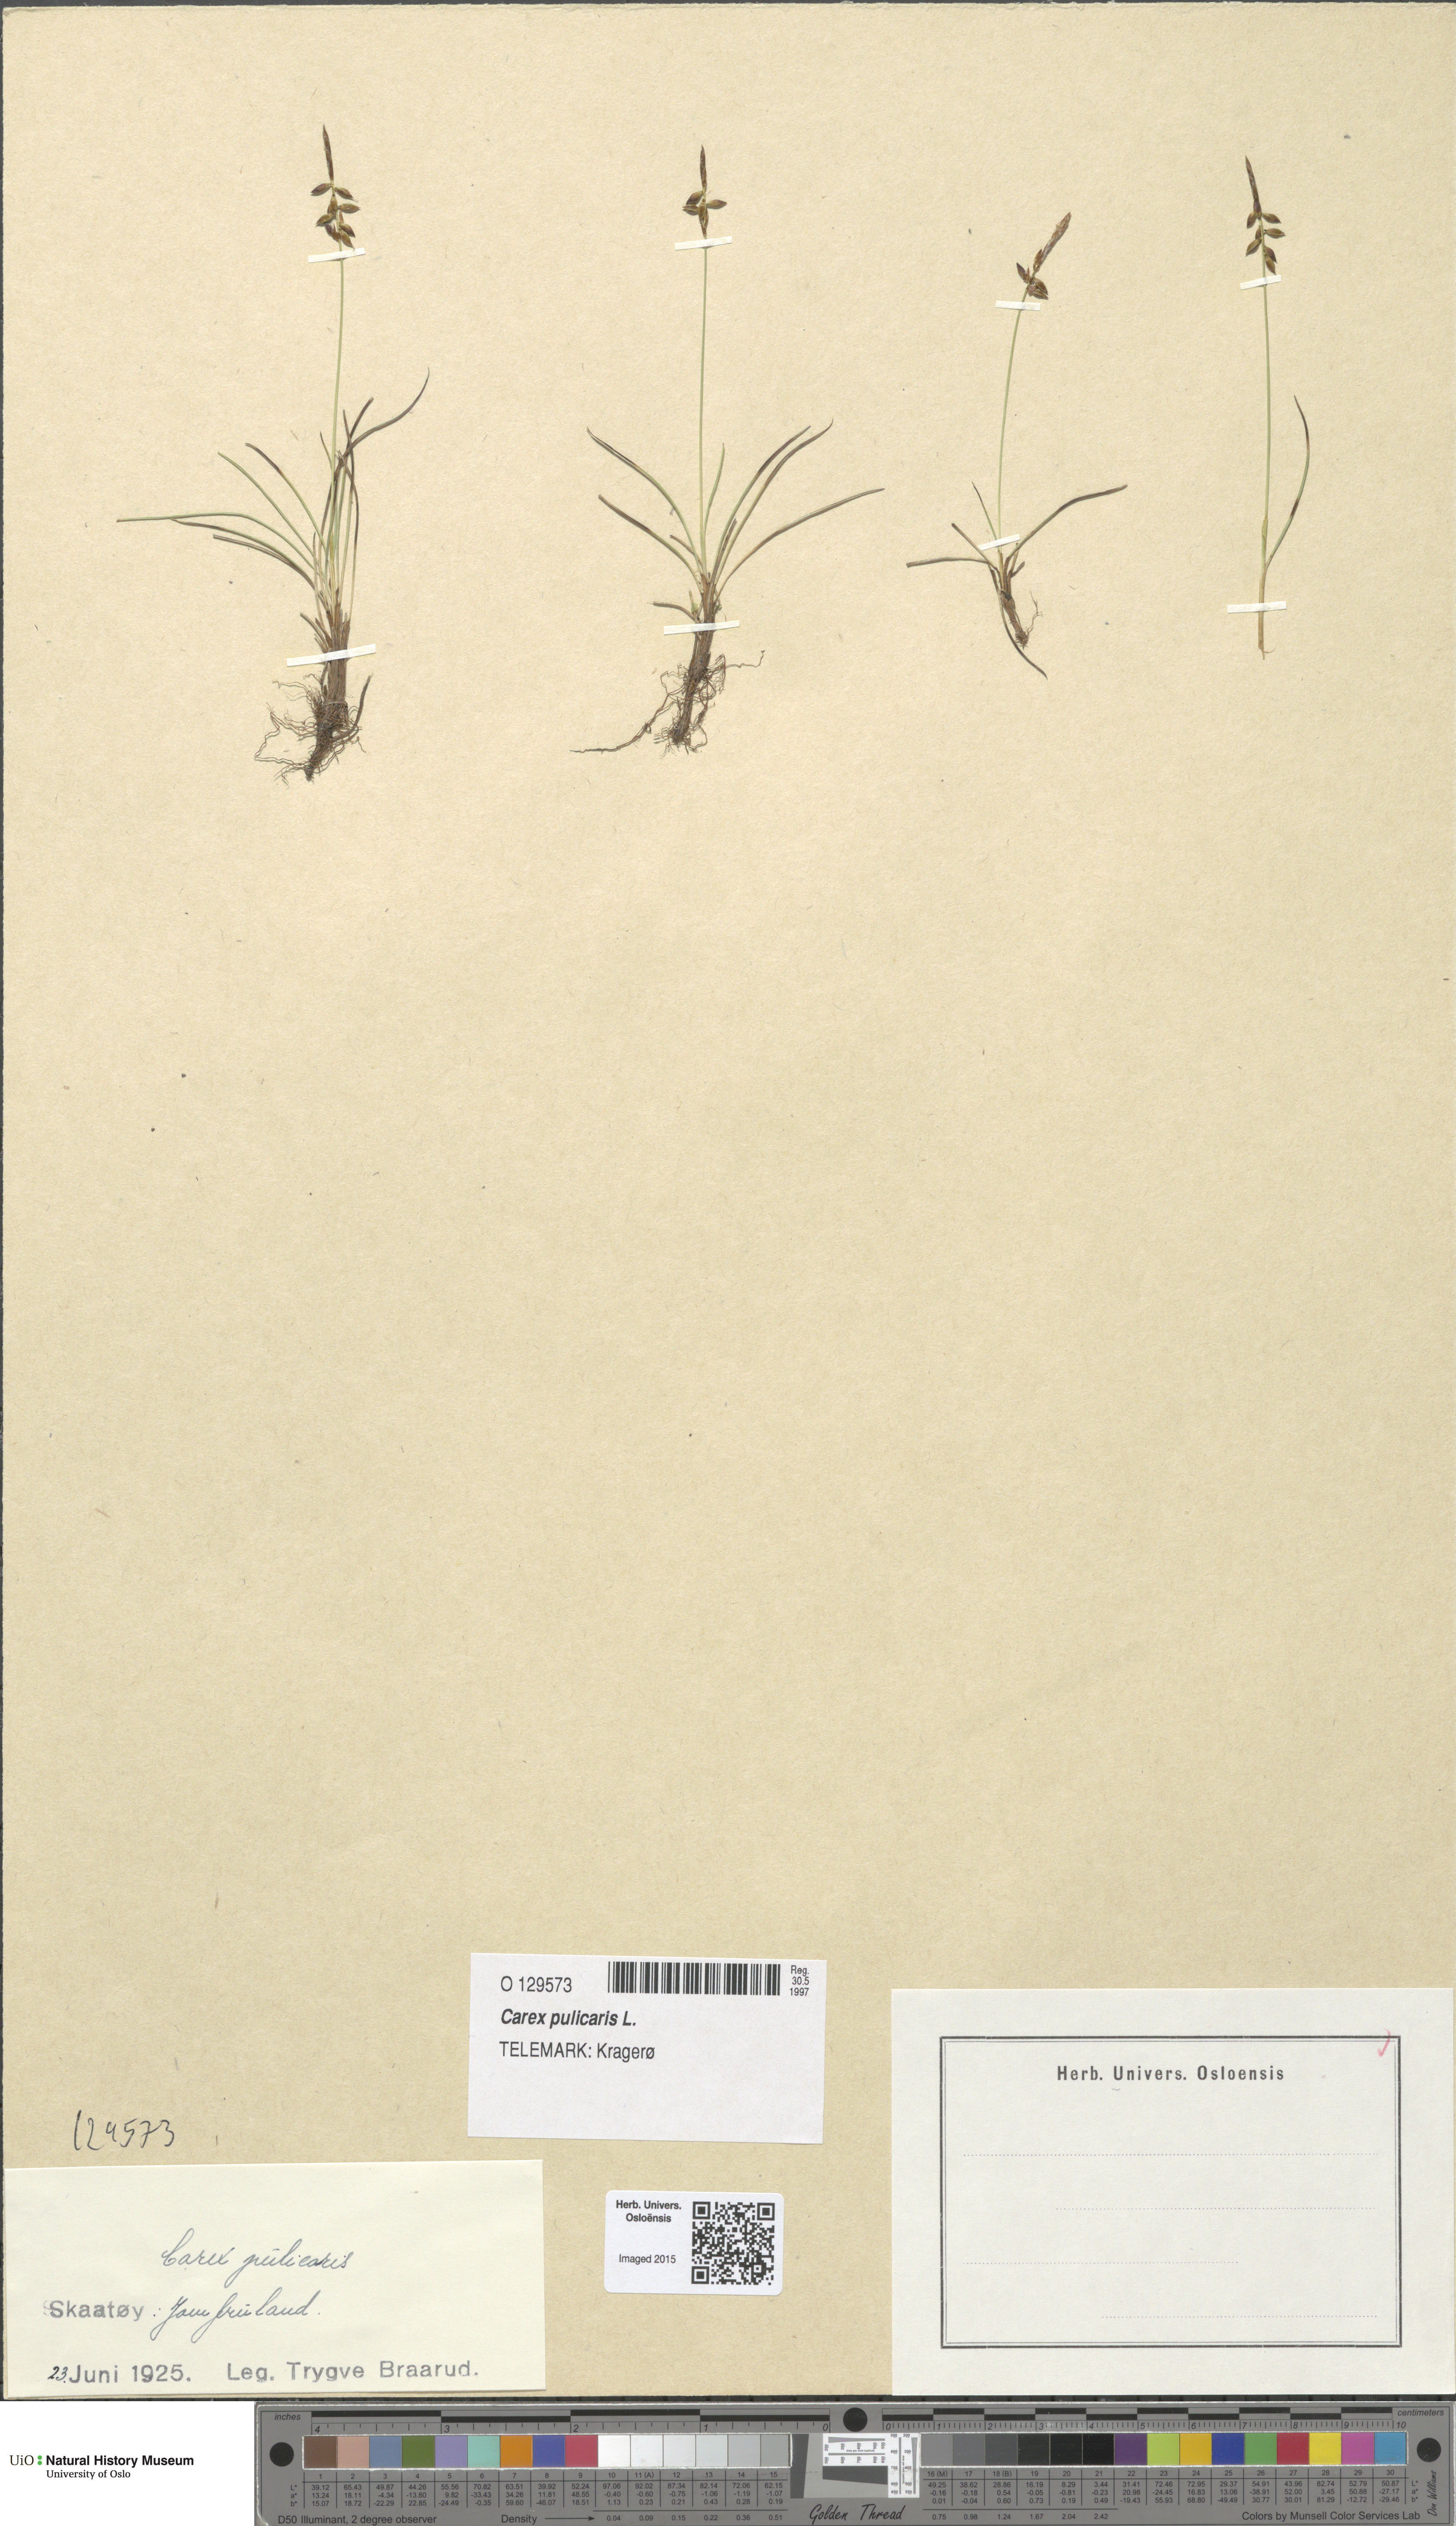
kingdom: Plantae
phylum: Tracheophyta
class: Liliopsida
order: Poales
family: Cyperaceae
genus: Carex
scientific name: Carex pulicaris
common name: Flea sedge
